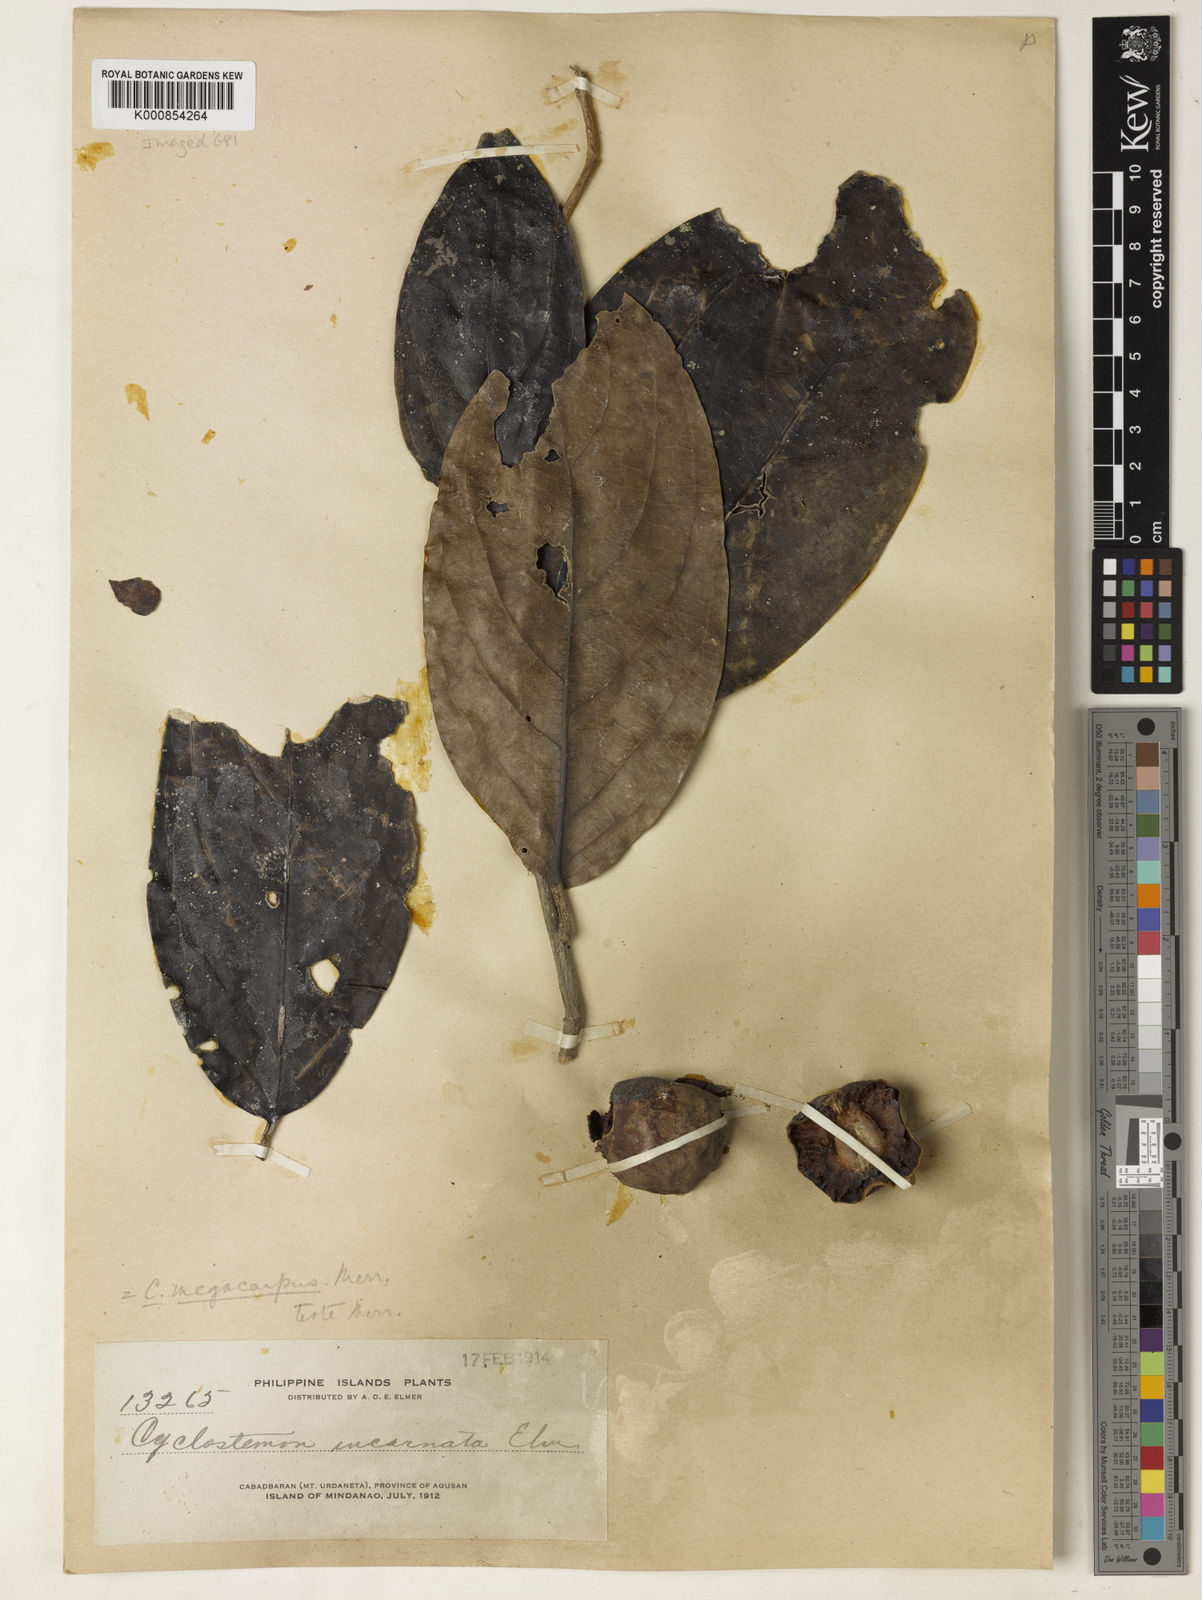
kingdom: Plantae
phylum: Tracheophyta
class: Magnoliopsida
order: Malpighiales
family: Putranjivaceae
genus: Drypetes
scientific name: Drypetes grandifolia
